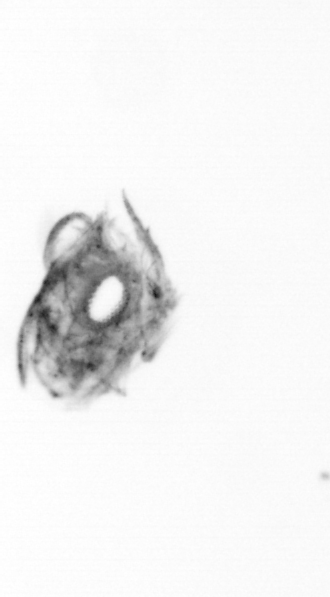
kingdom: Animalia
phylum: Arthropoda
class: Copepoda
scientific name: Copepoda
